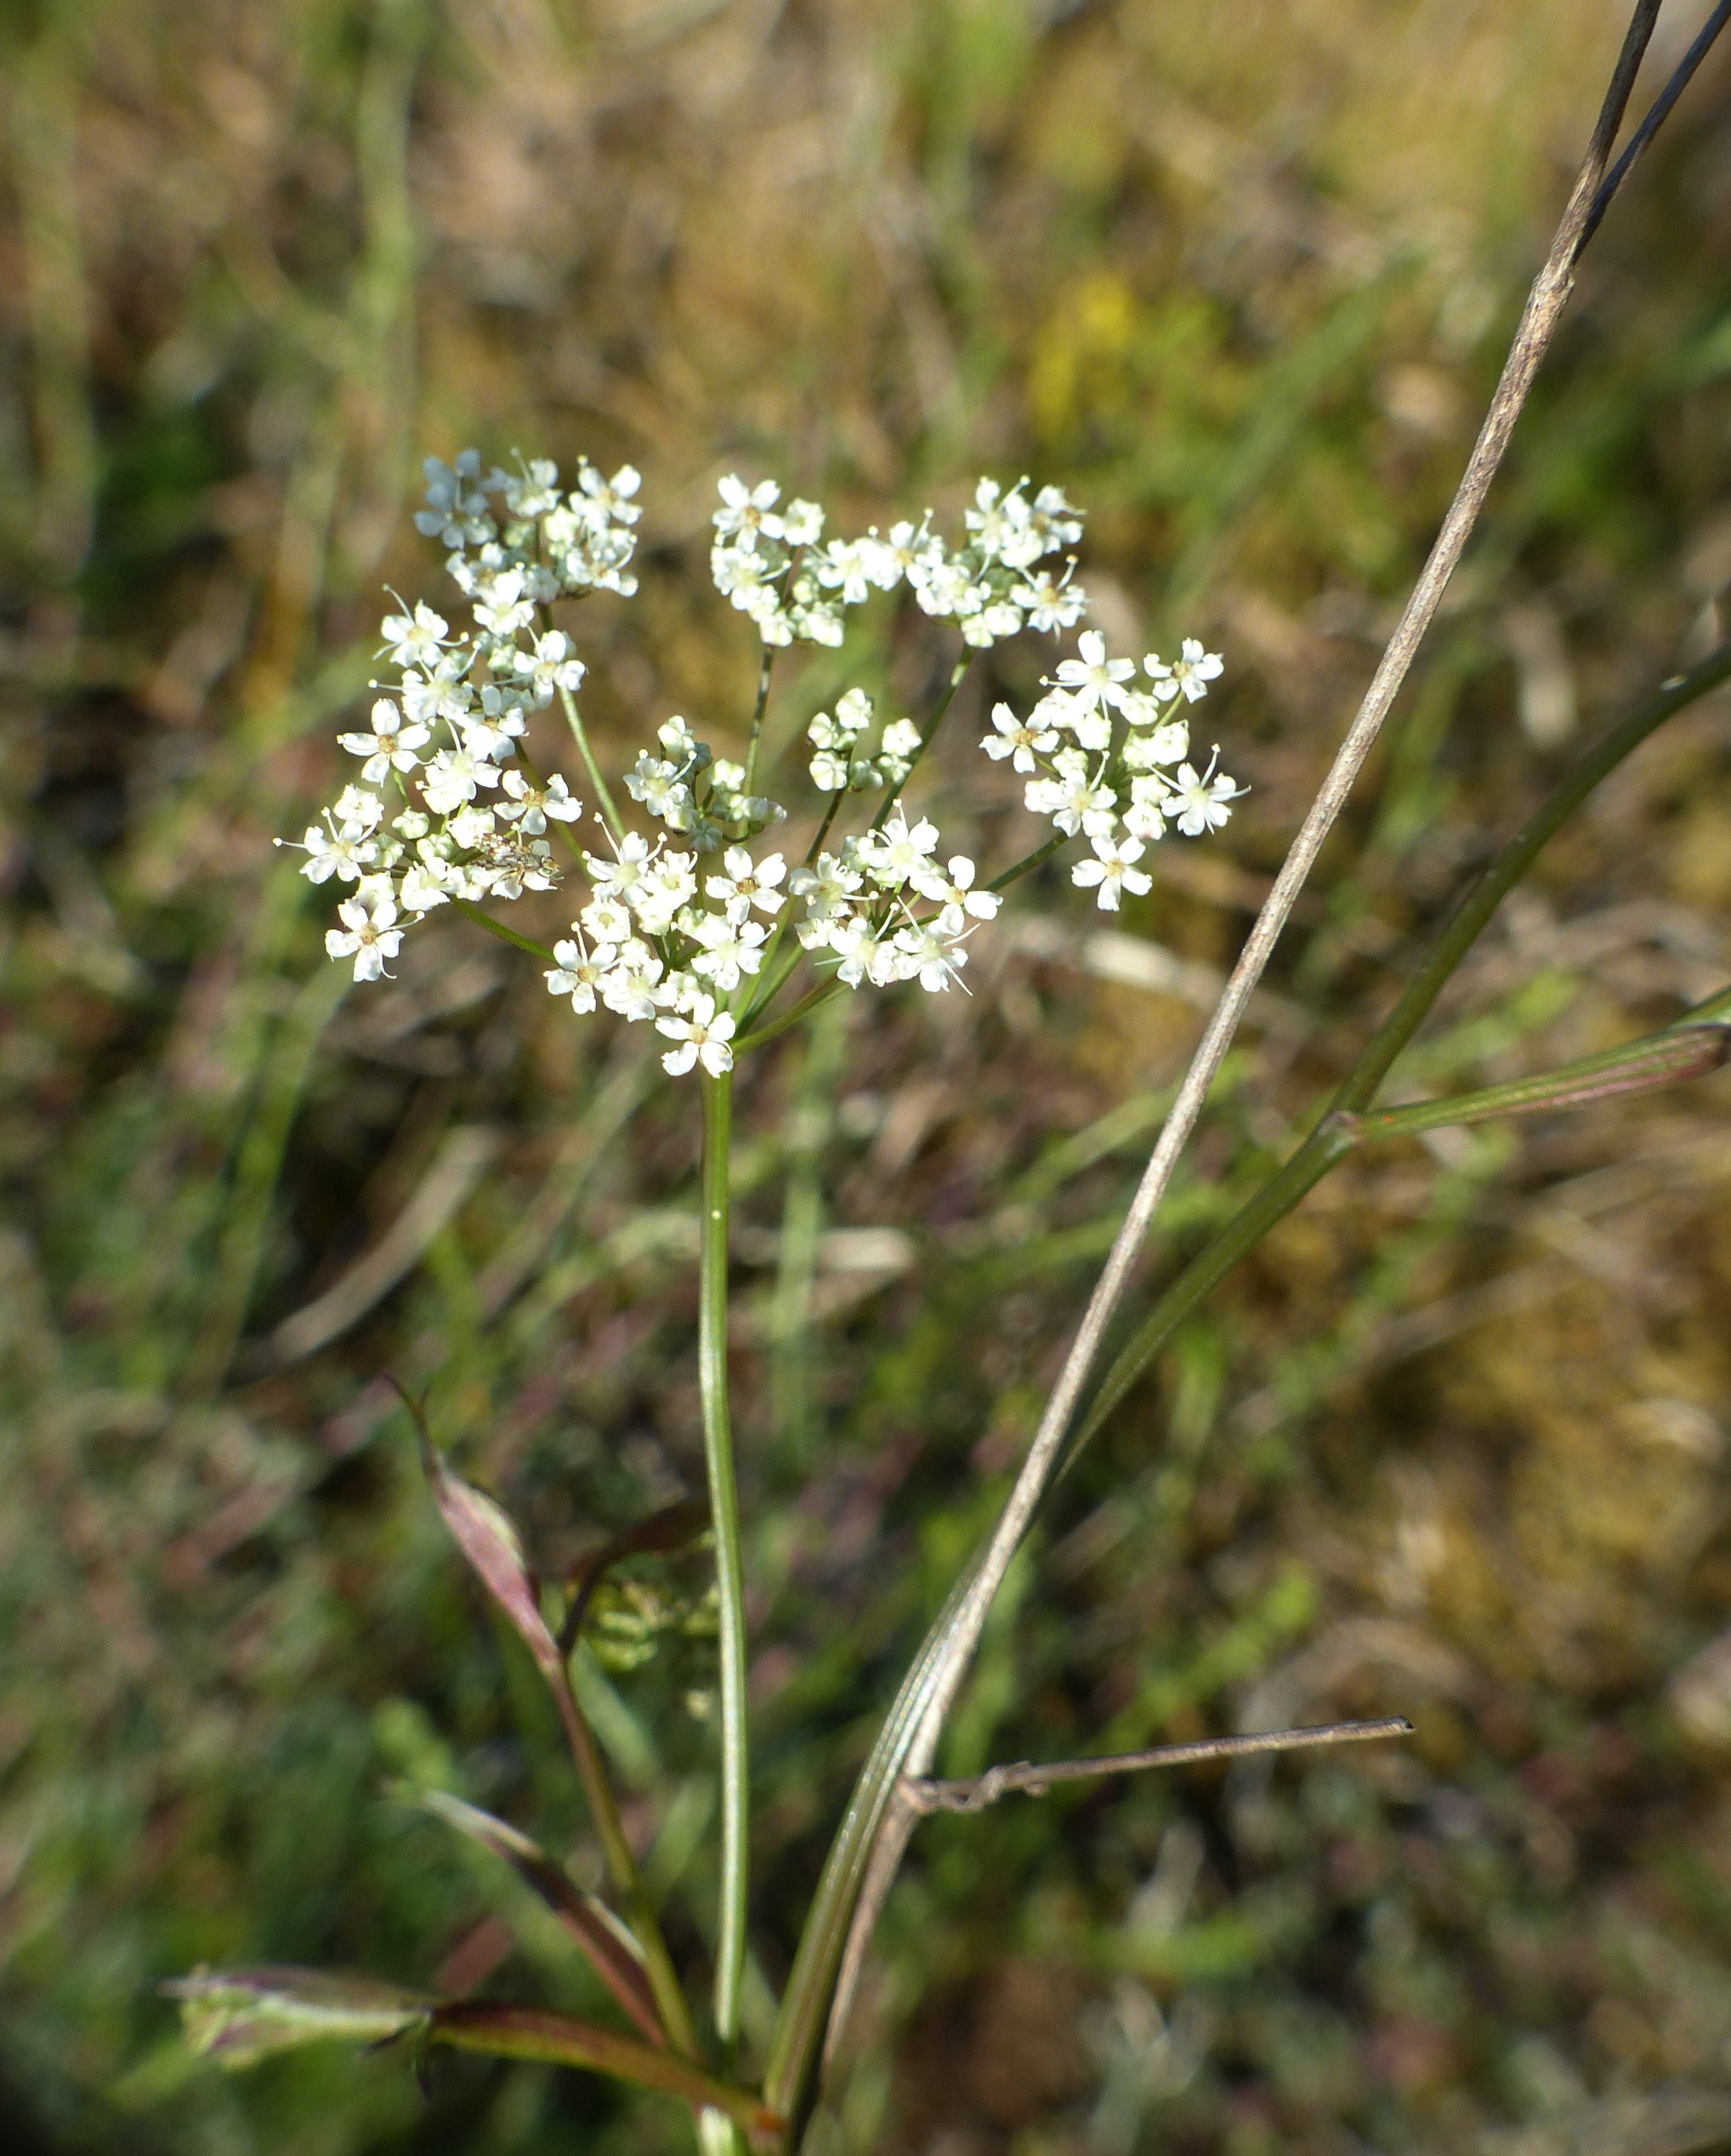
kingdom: Plantae
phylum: Tracheophyta
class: Magnoliopsida
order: Apiales
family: Apiaceae
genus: Pimpinella
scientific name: Pimpinella saxifraga
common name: Almindelig pimpinelle
